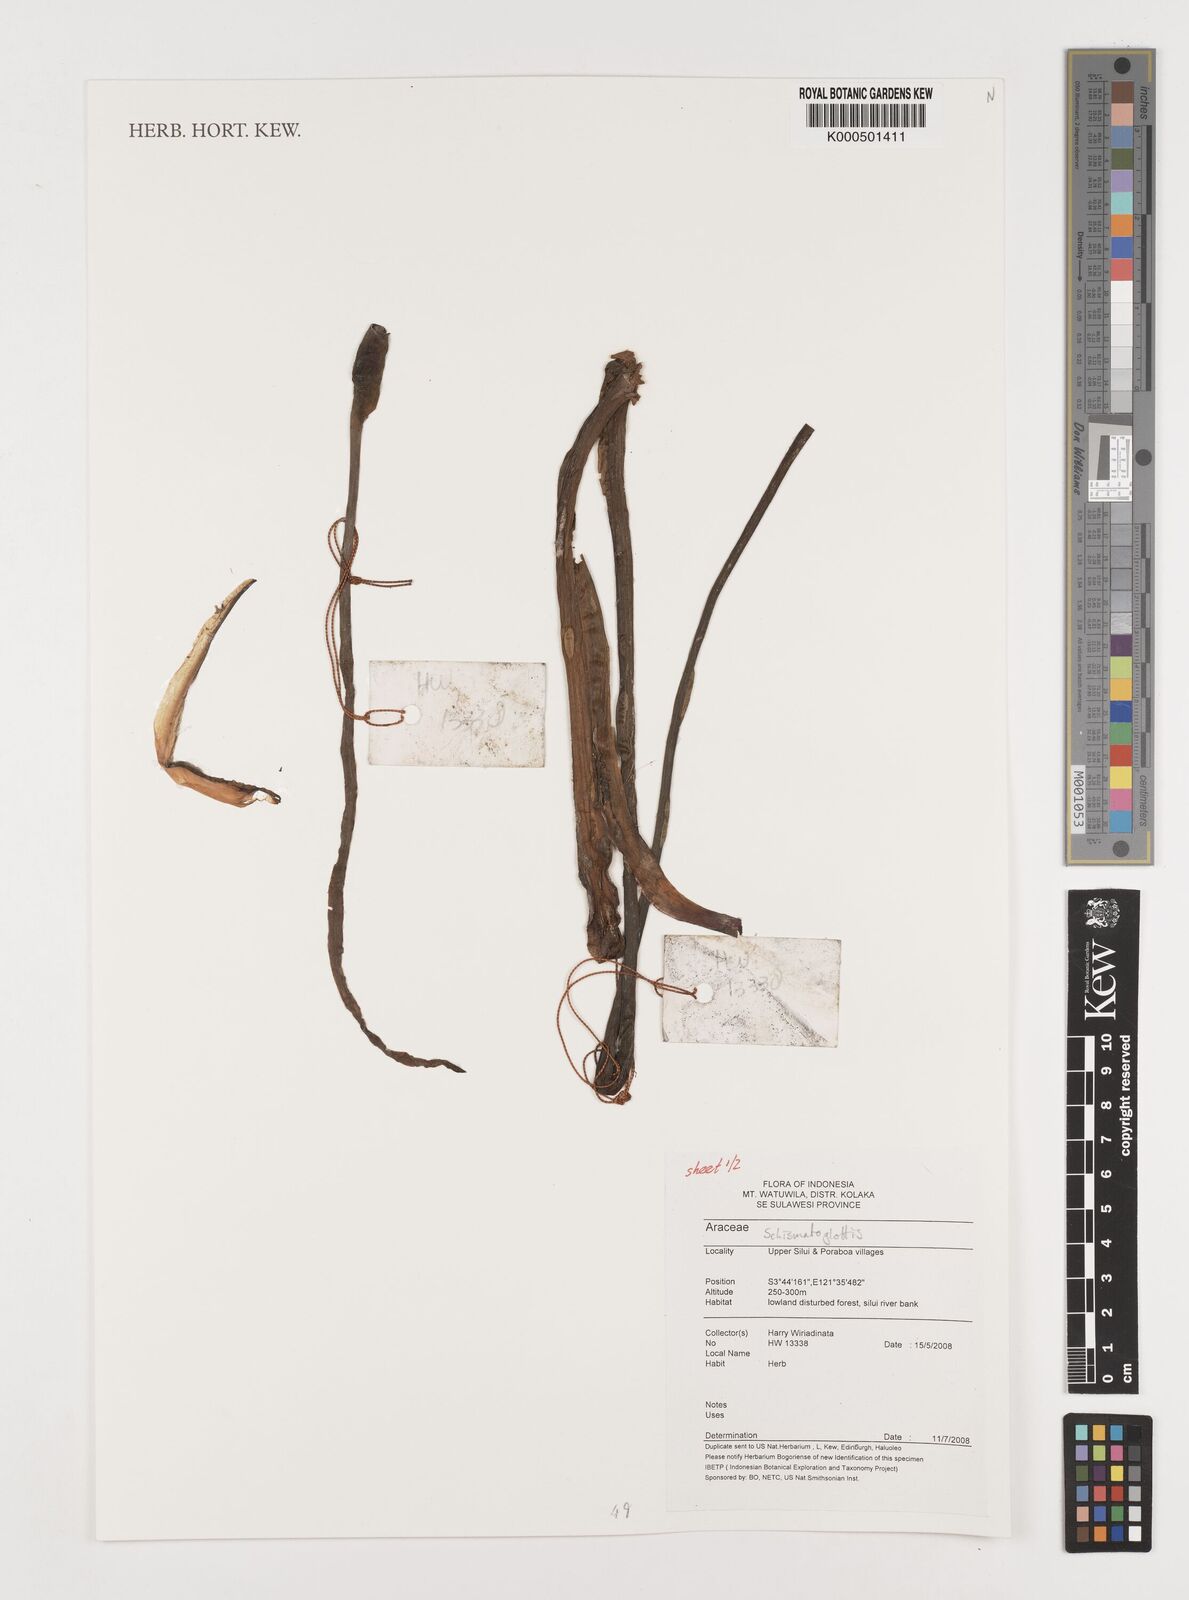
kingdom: Plantae
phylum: Tracheophyta
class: Liliopsida
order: Alismatales
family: Araceae
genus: Schismatoglottis
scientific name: Schismatoglottis
